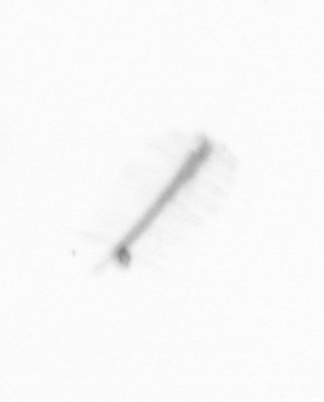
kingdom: Chromista
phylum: Ochrophyta
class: Bacillariophyceae
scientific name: Bacillariophyceae
